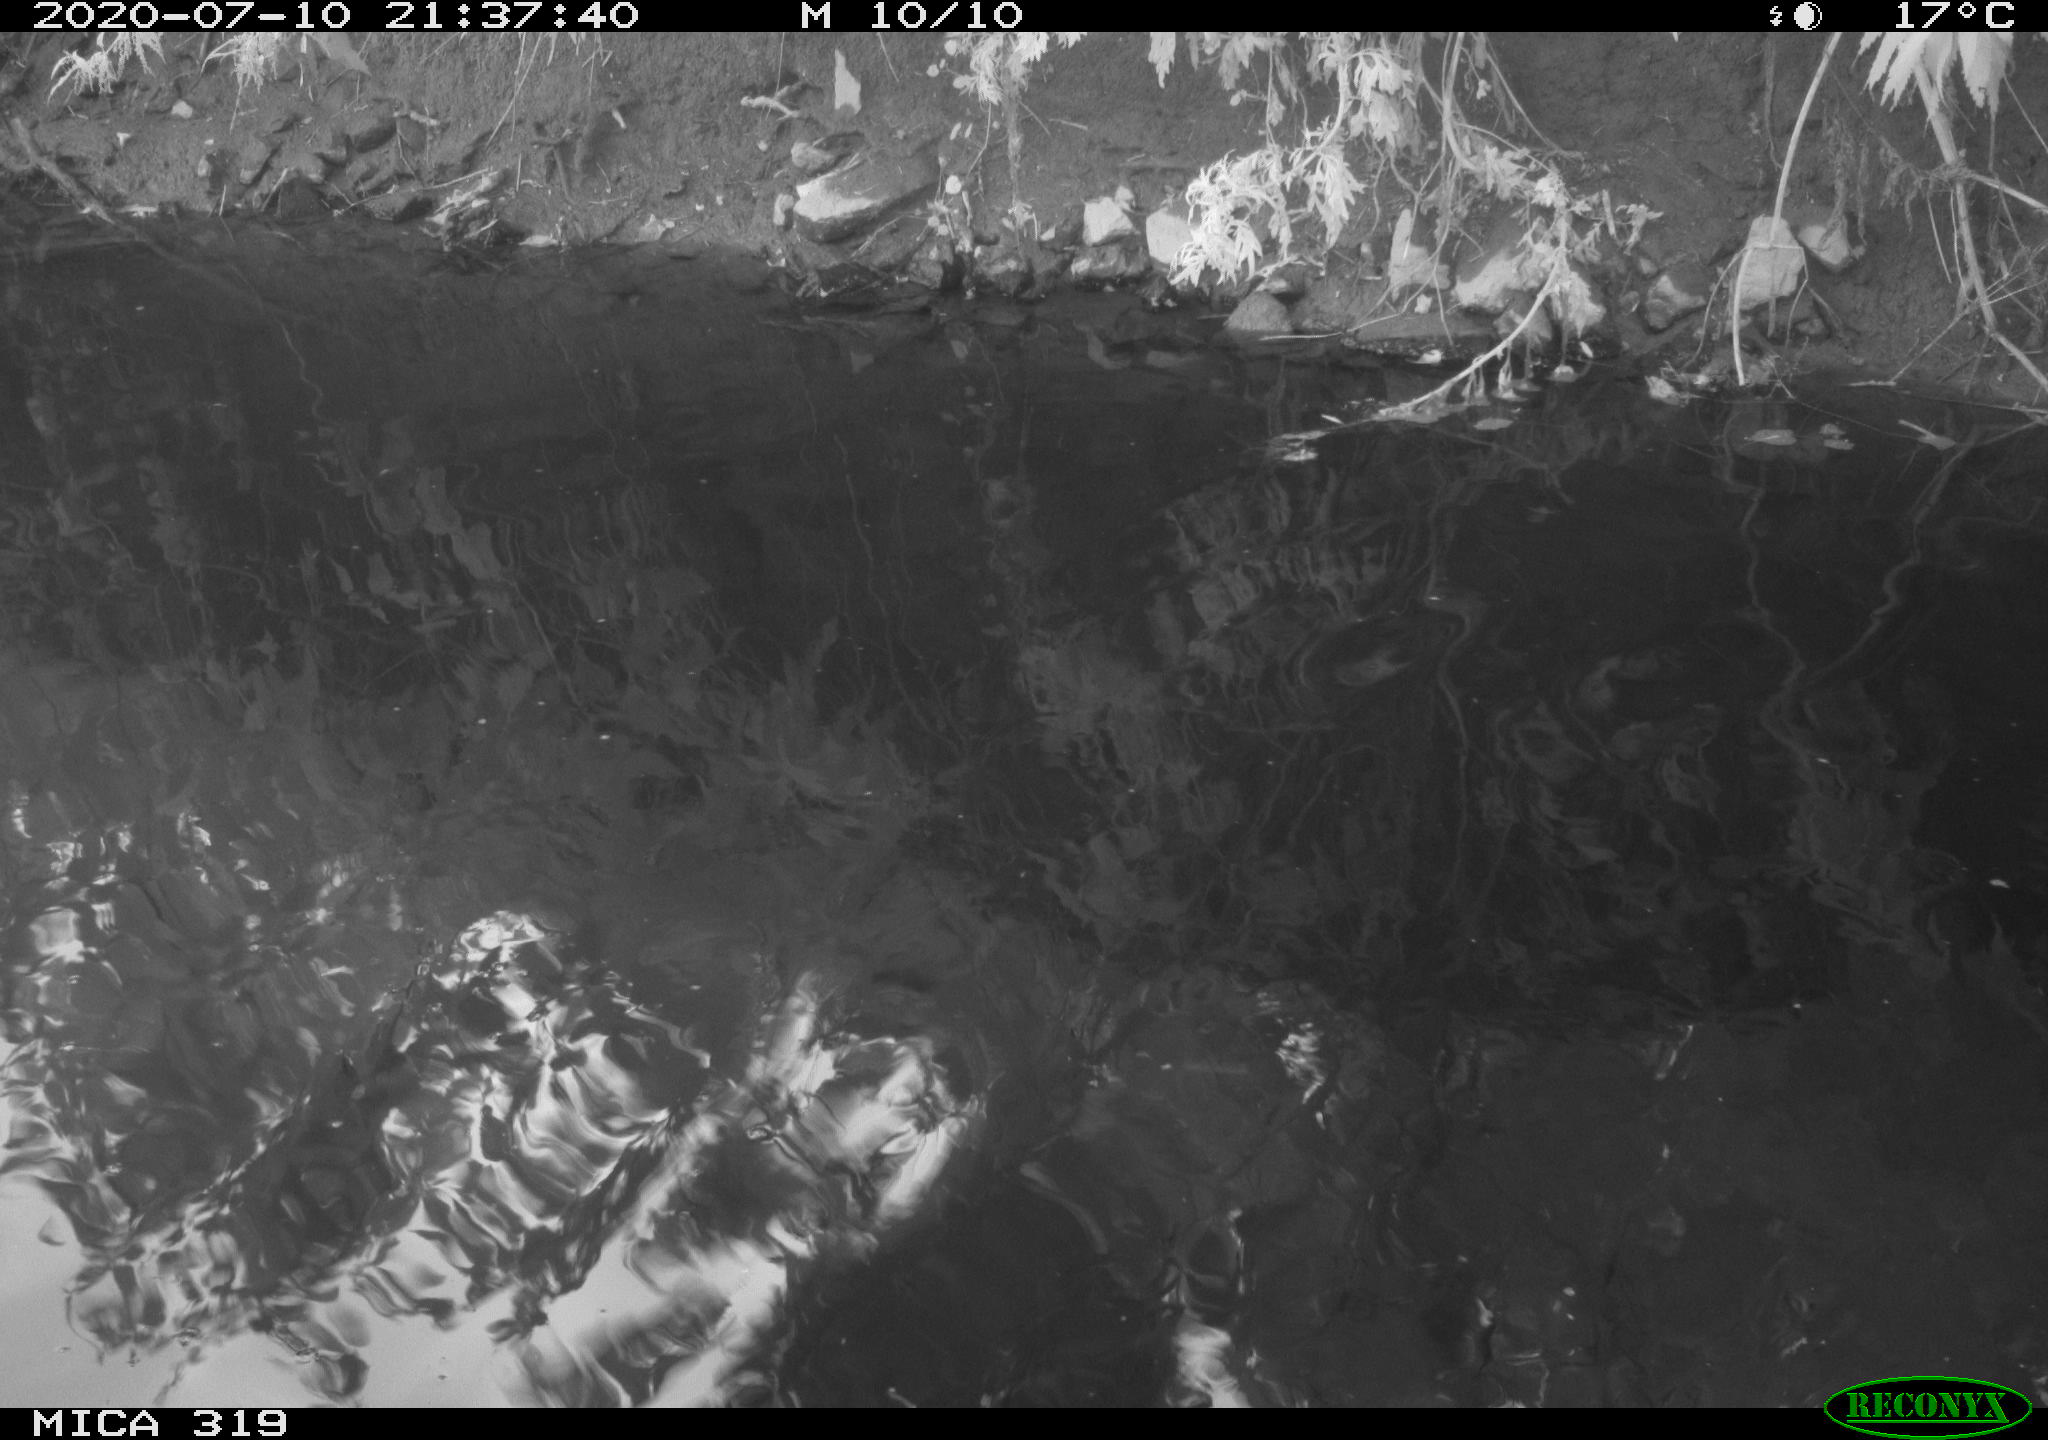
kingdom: Animalia
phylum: Chordata
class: Aves
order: Anseriformes
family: Anatidae
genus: Anas
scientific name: Anas platyrhynchos
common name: Mallard
